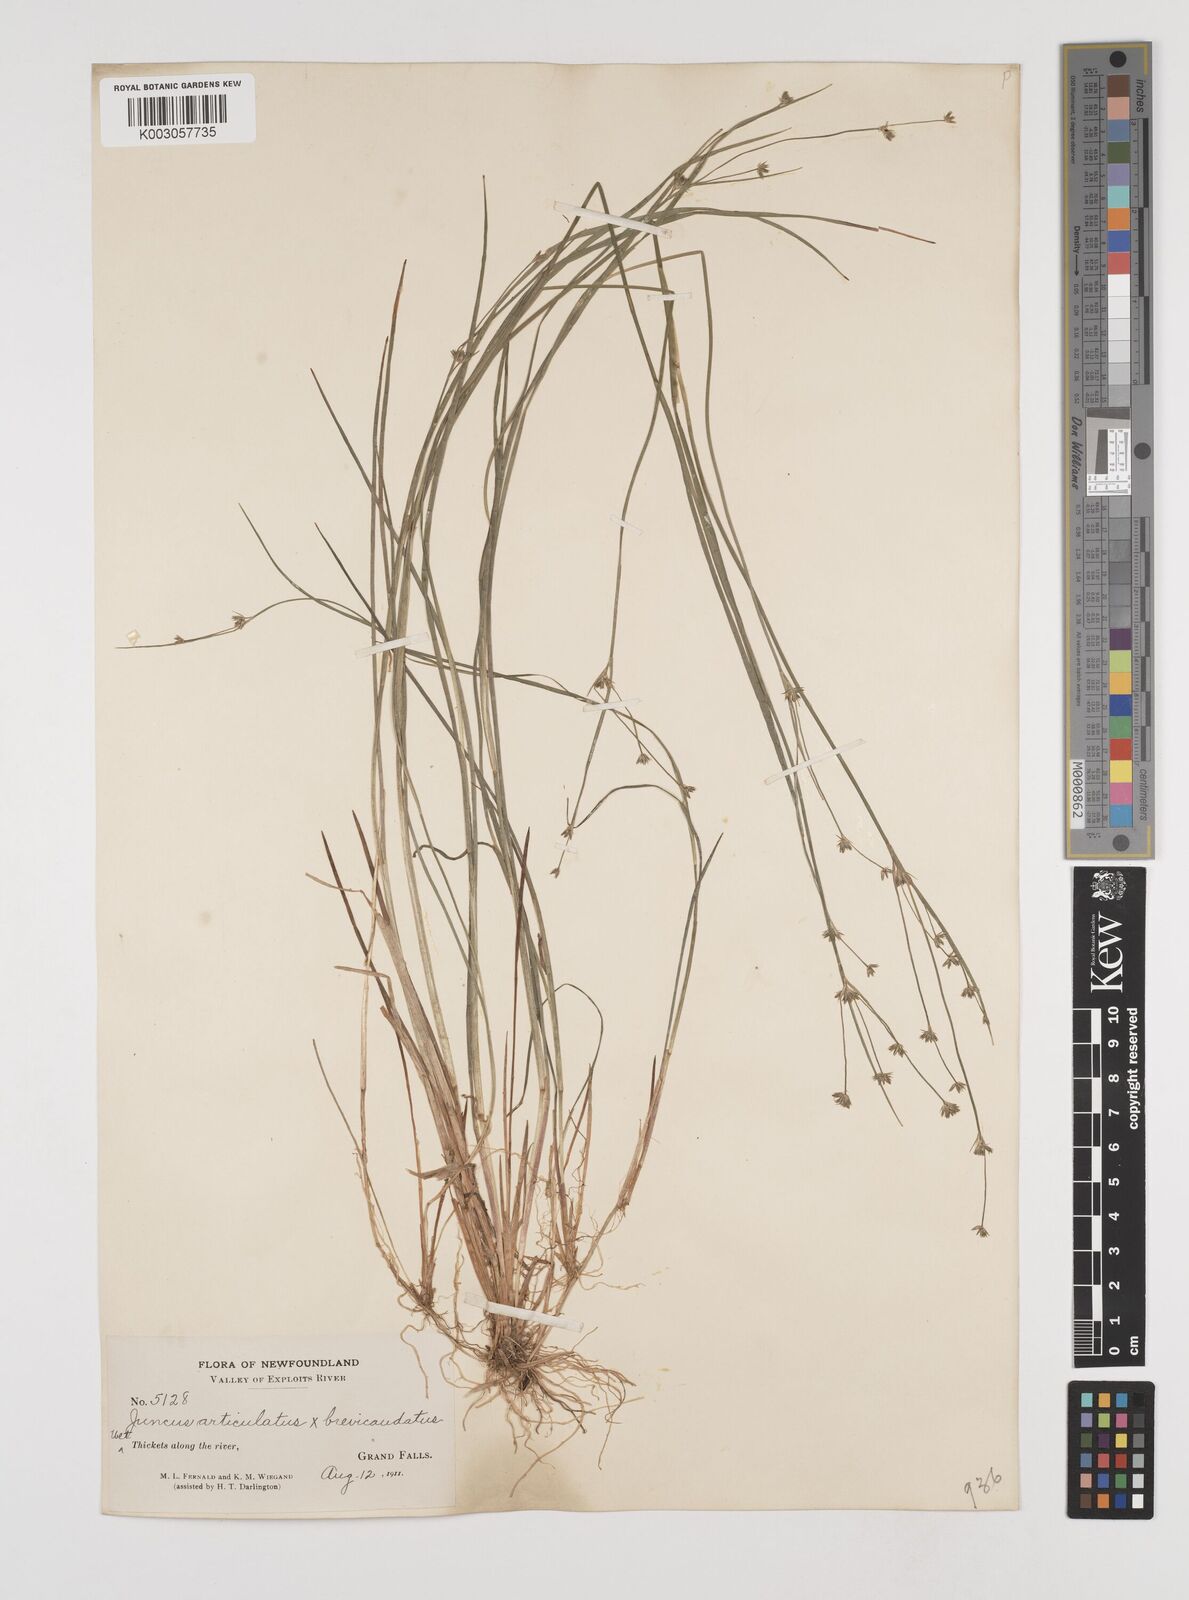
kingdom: Plantae
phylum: Tracheophyta
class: Liliopsida
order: Poales
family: Juncaceae
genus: Juncus
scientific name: Juncus articulatus
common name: Jointed rush
